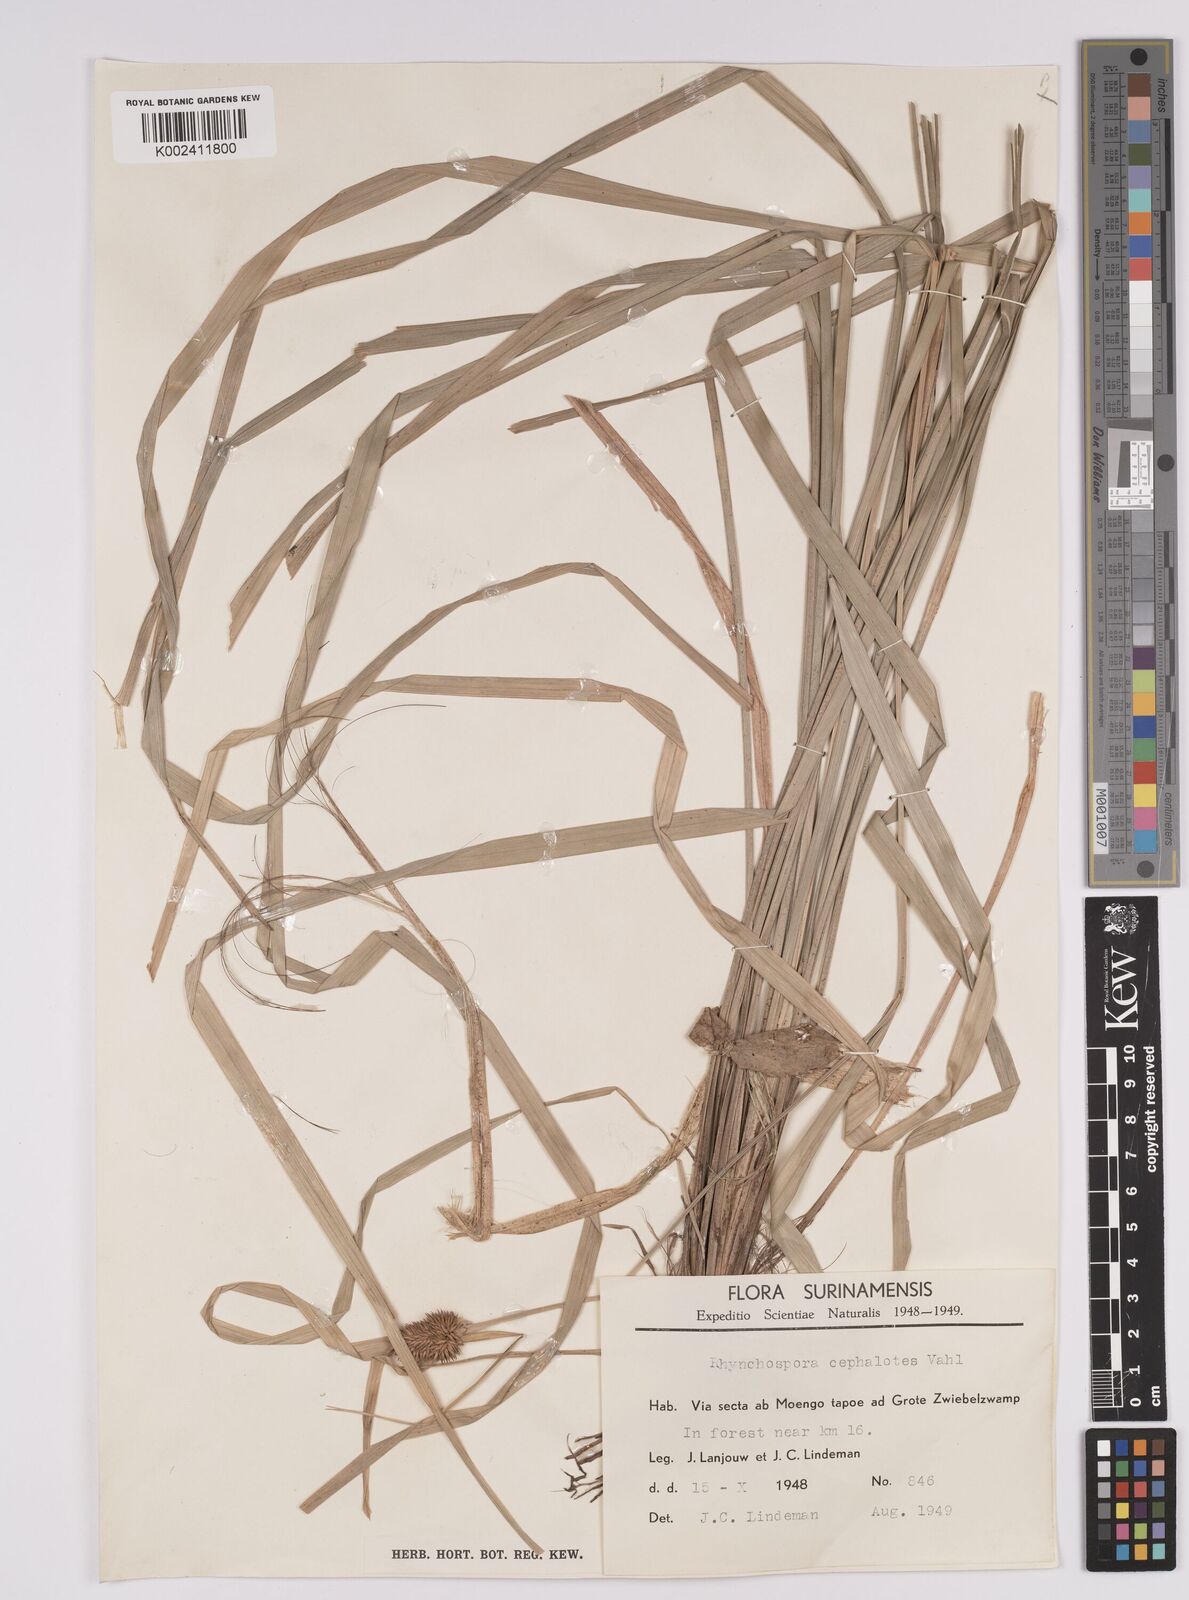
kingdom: Plantae
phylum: Tracheophyta
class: Liliopsida
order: Poales
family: Cyperaceae
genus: Rhynchospora
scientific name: Rhynchospora cephalotes
